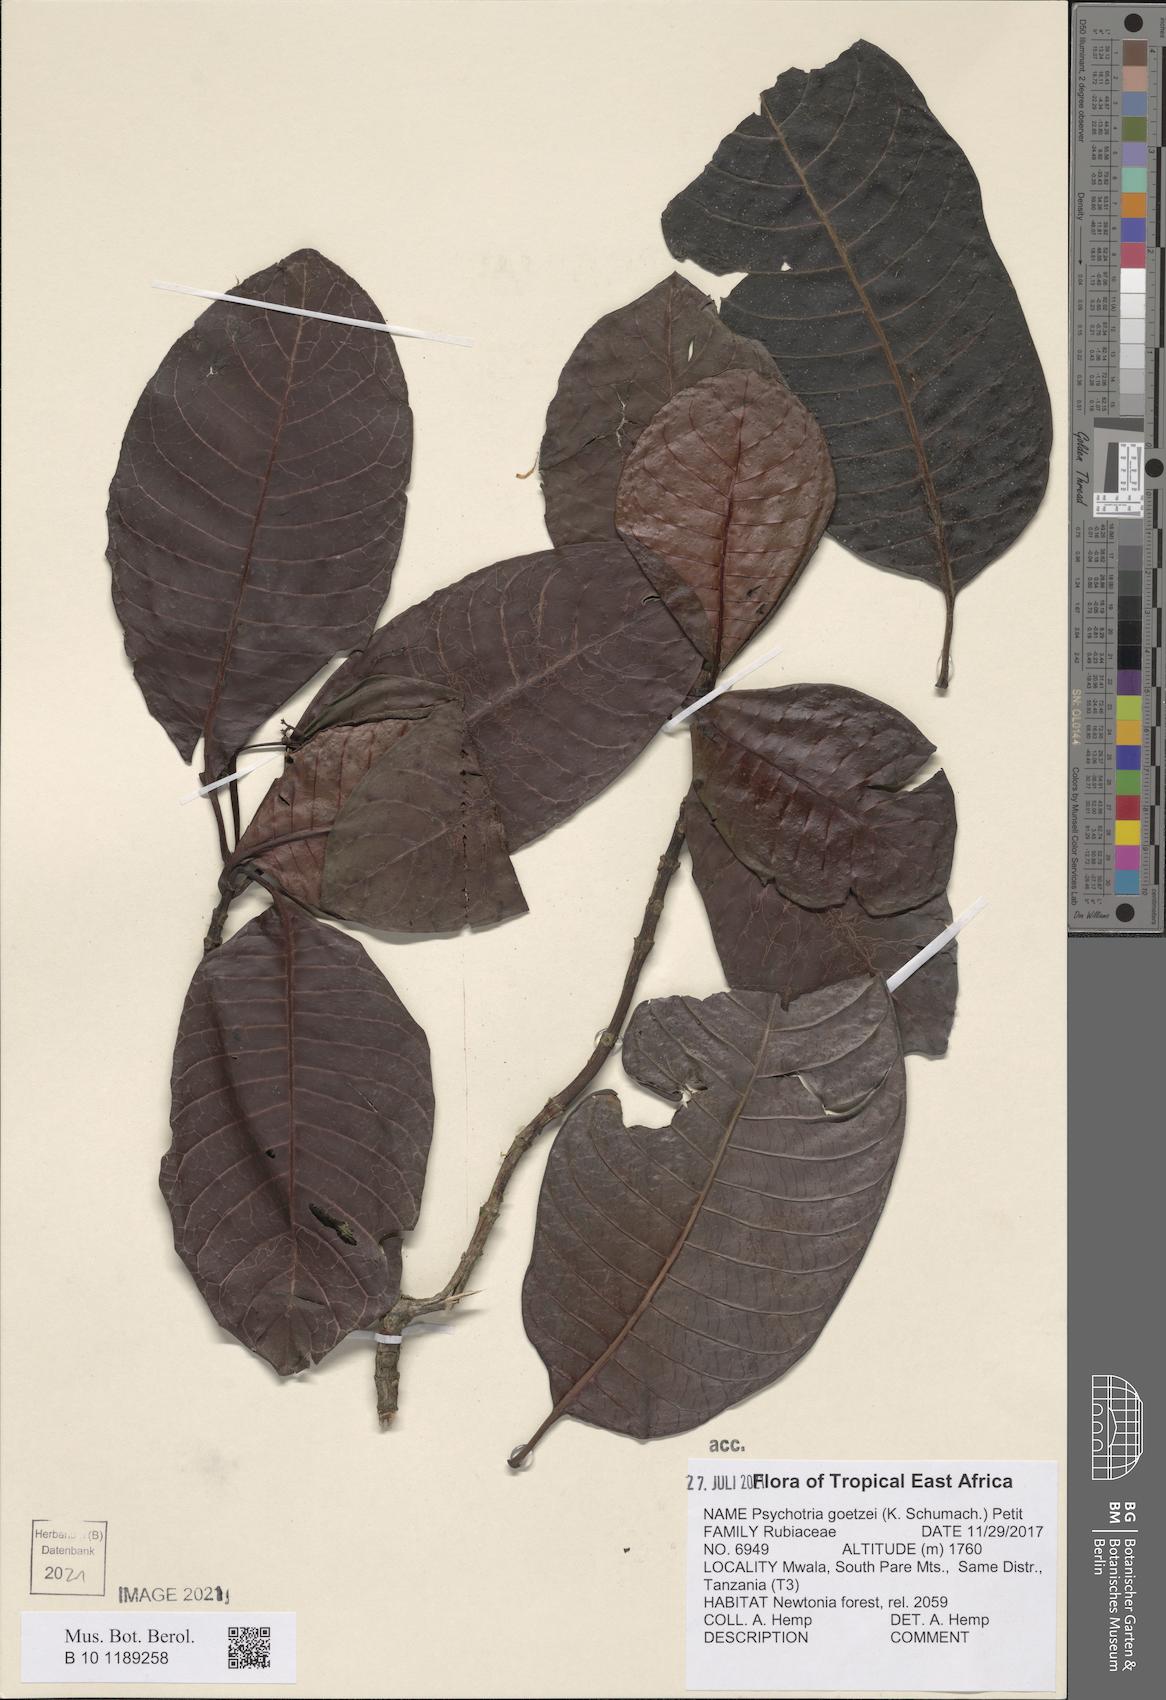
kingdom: Plantae
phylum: Tracheophyta
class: Magnoliopsida
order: Gentianales
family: Rubiaceae
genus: Psychotria
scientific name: Psychotria goetzei
